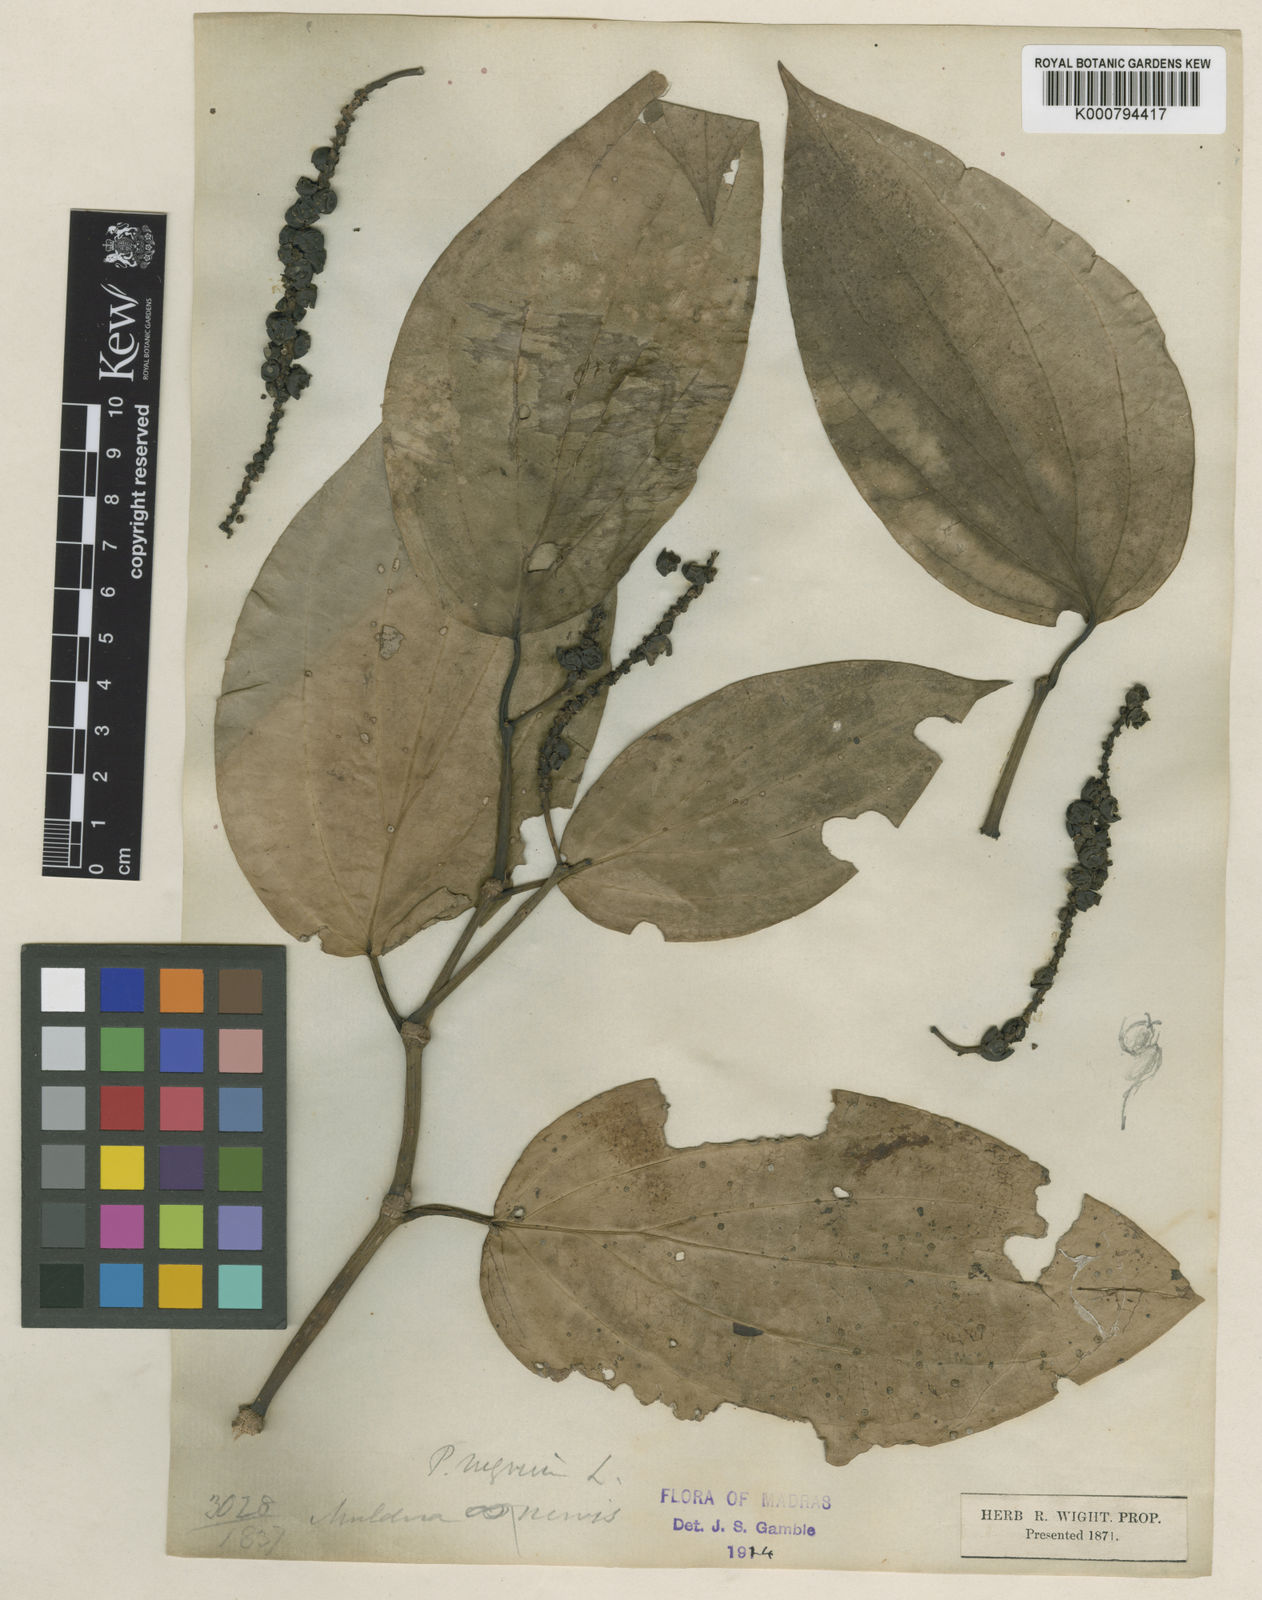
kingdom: Plantae
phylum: Tracheophyta
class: Magnoliopsida
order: Piperales
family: Piperaceae
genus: Piper
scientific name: Piper nigrum
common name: Black pepper
